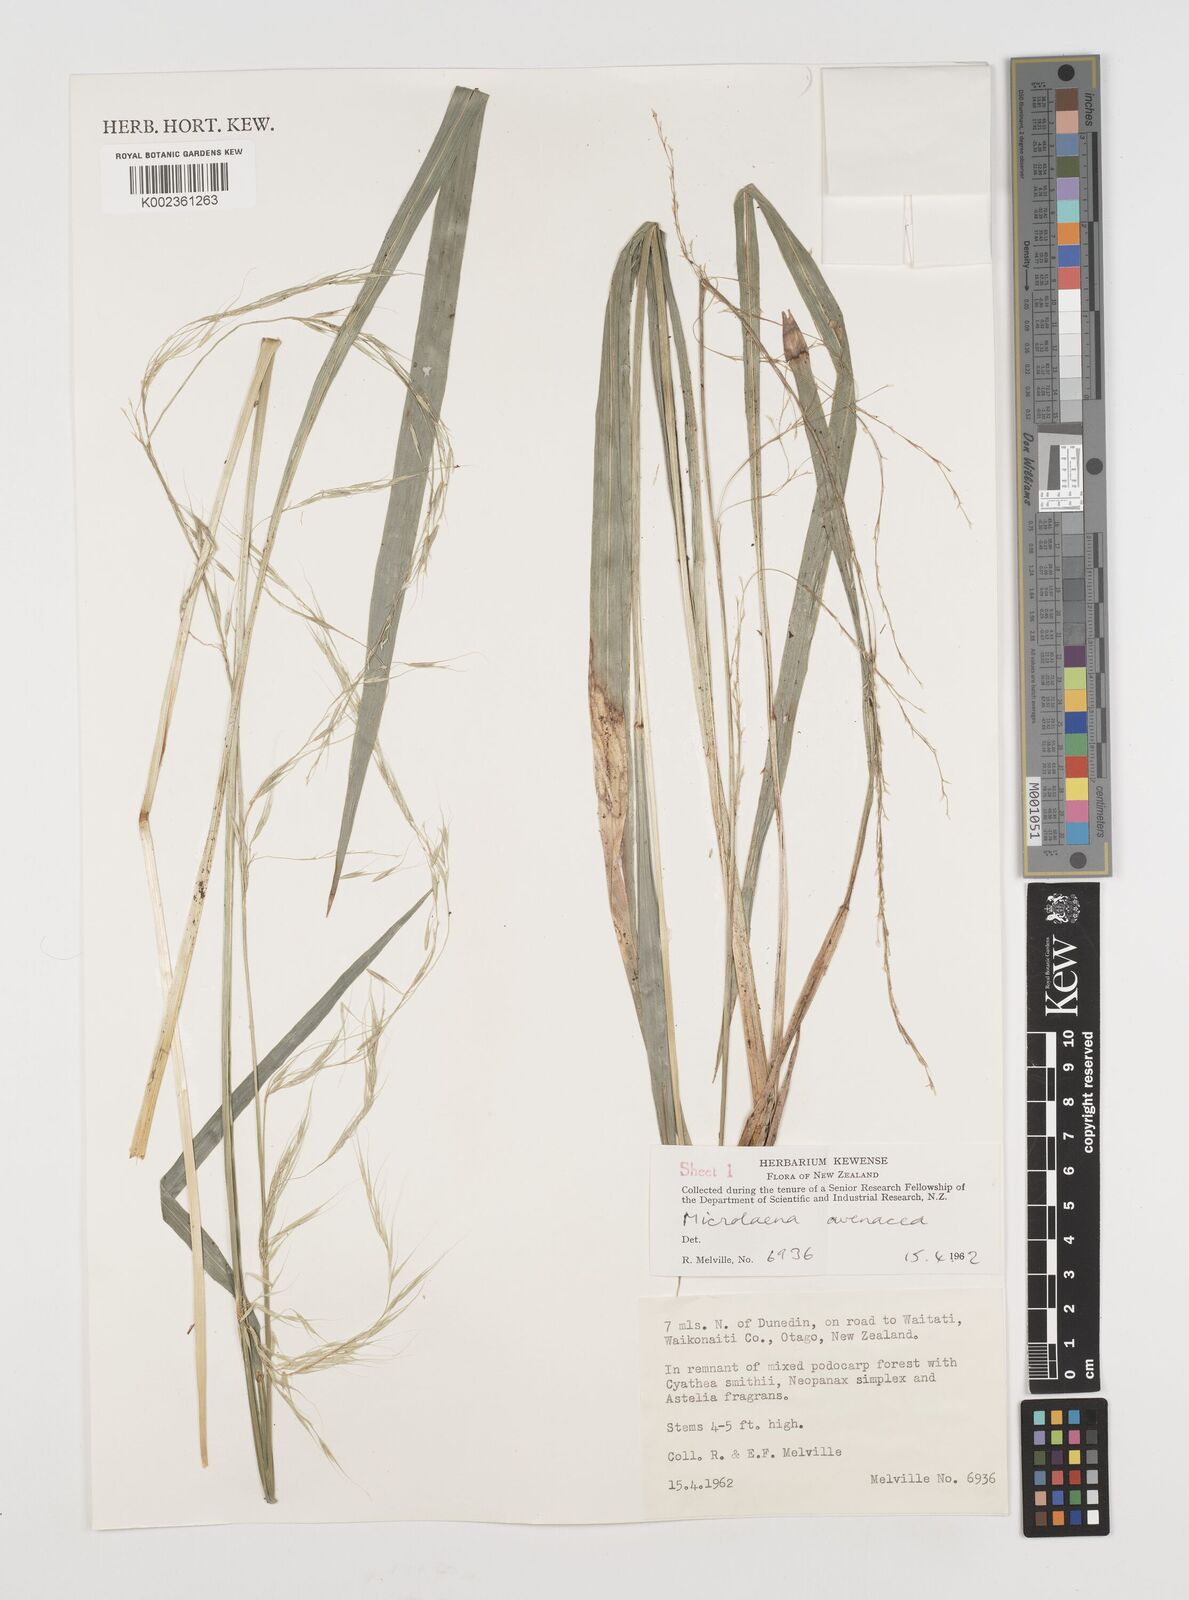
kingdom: Plantae
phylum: Tracheophyta
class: Liliopsida
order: Poales
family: Poaceae
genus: Ehrharta
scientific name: Ehrharta diplax
